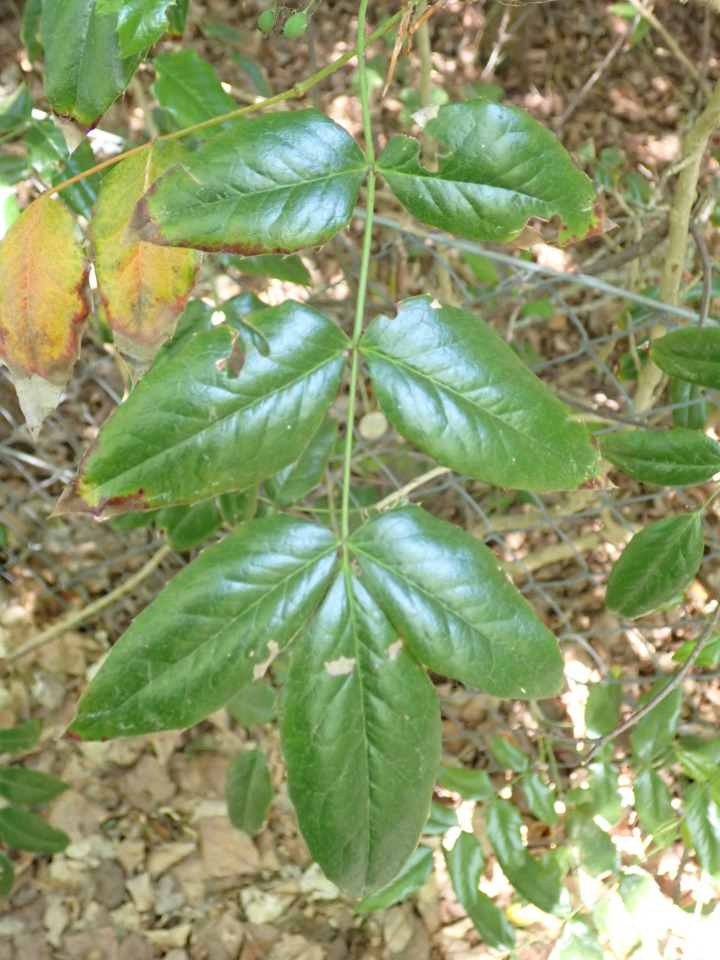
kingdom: Plantae
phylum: Tracheophyta
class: Magnoliopsida
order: Ranunculales
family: Berberidaceae
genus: Mahonia
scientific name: Mahonia aquifolium
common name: Almindelig mahonie
